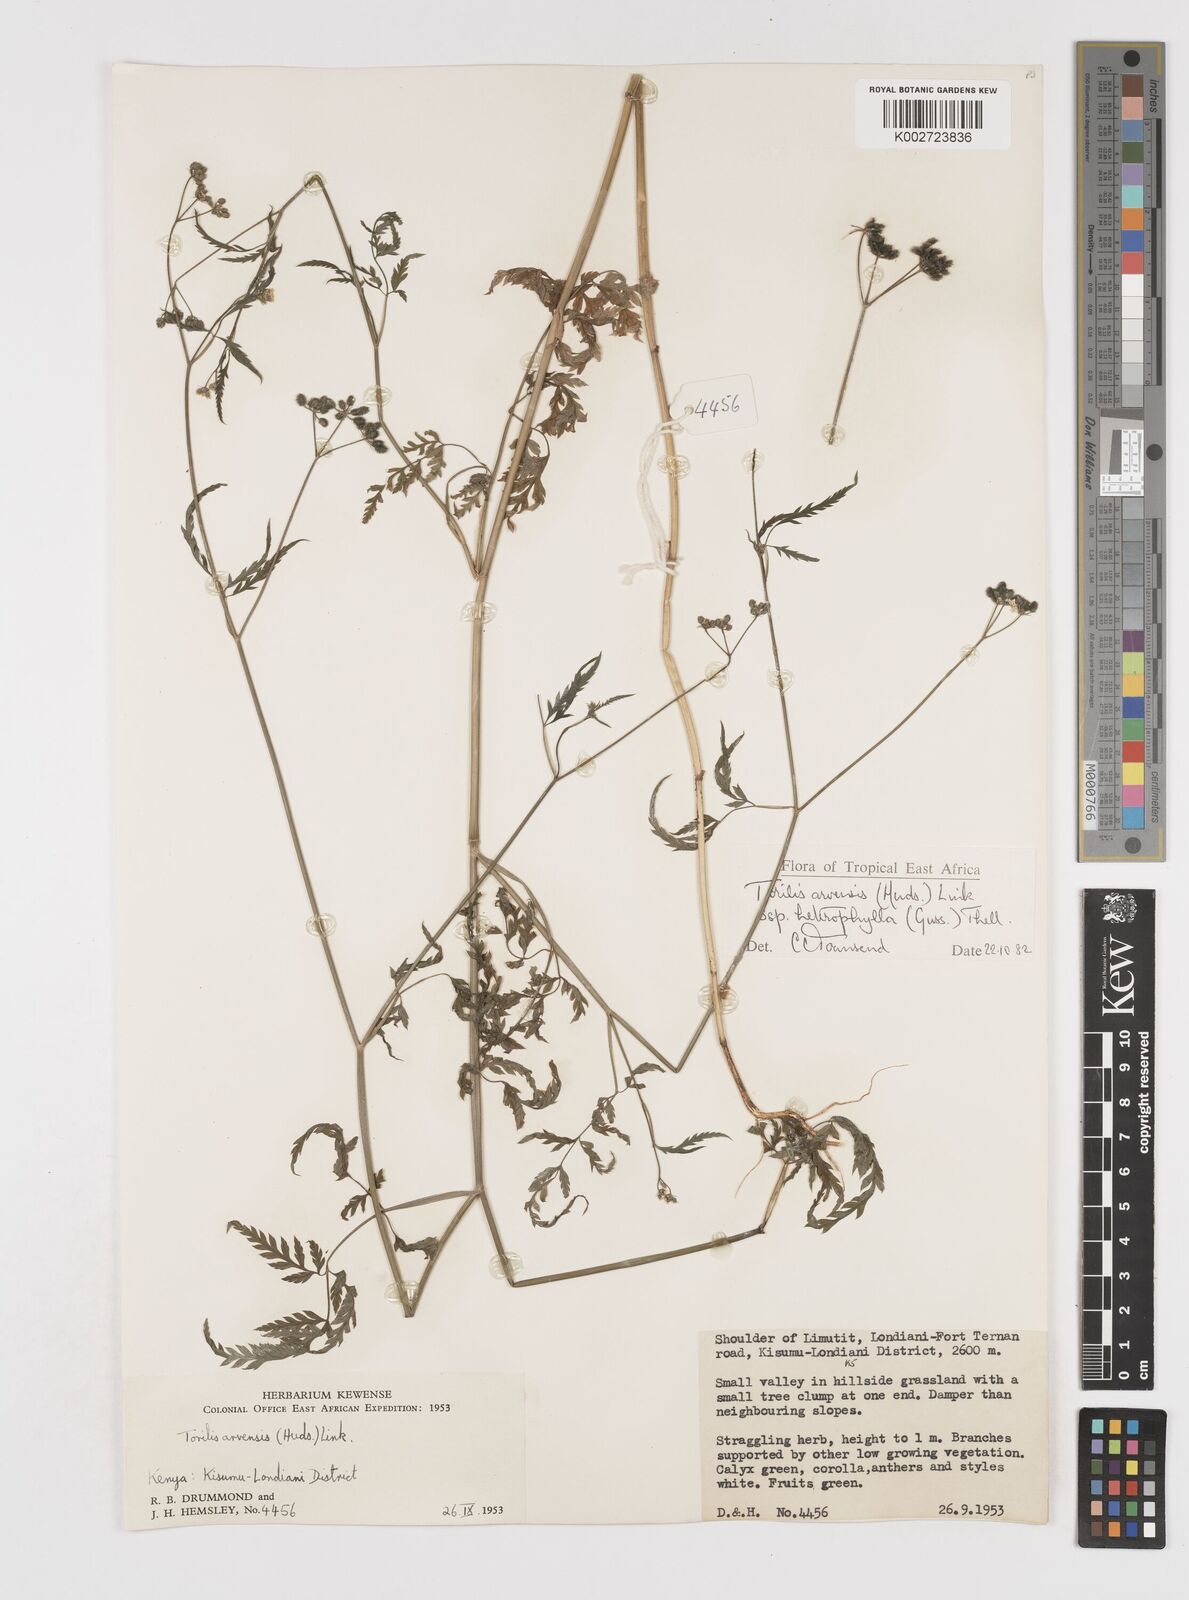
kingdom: Plantae
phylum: Tracheophyta
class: Magnoliopsida
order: Apiales
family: Apiaceae
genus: Torilis
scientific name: Torilis arvensis
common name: Spreading hedge-parsley
